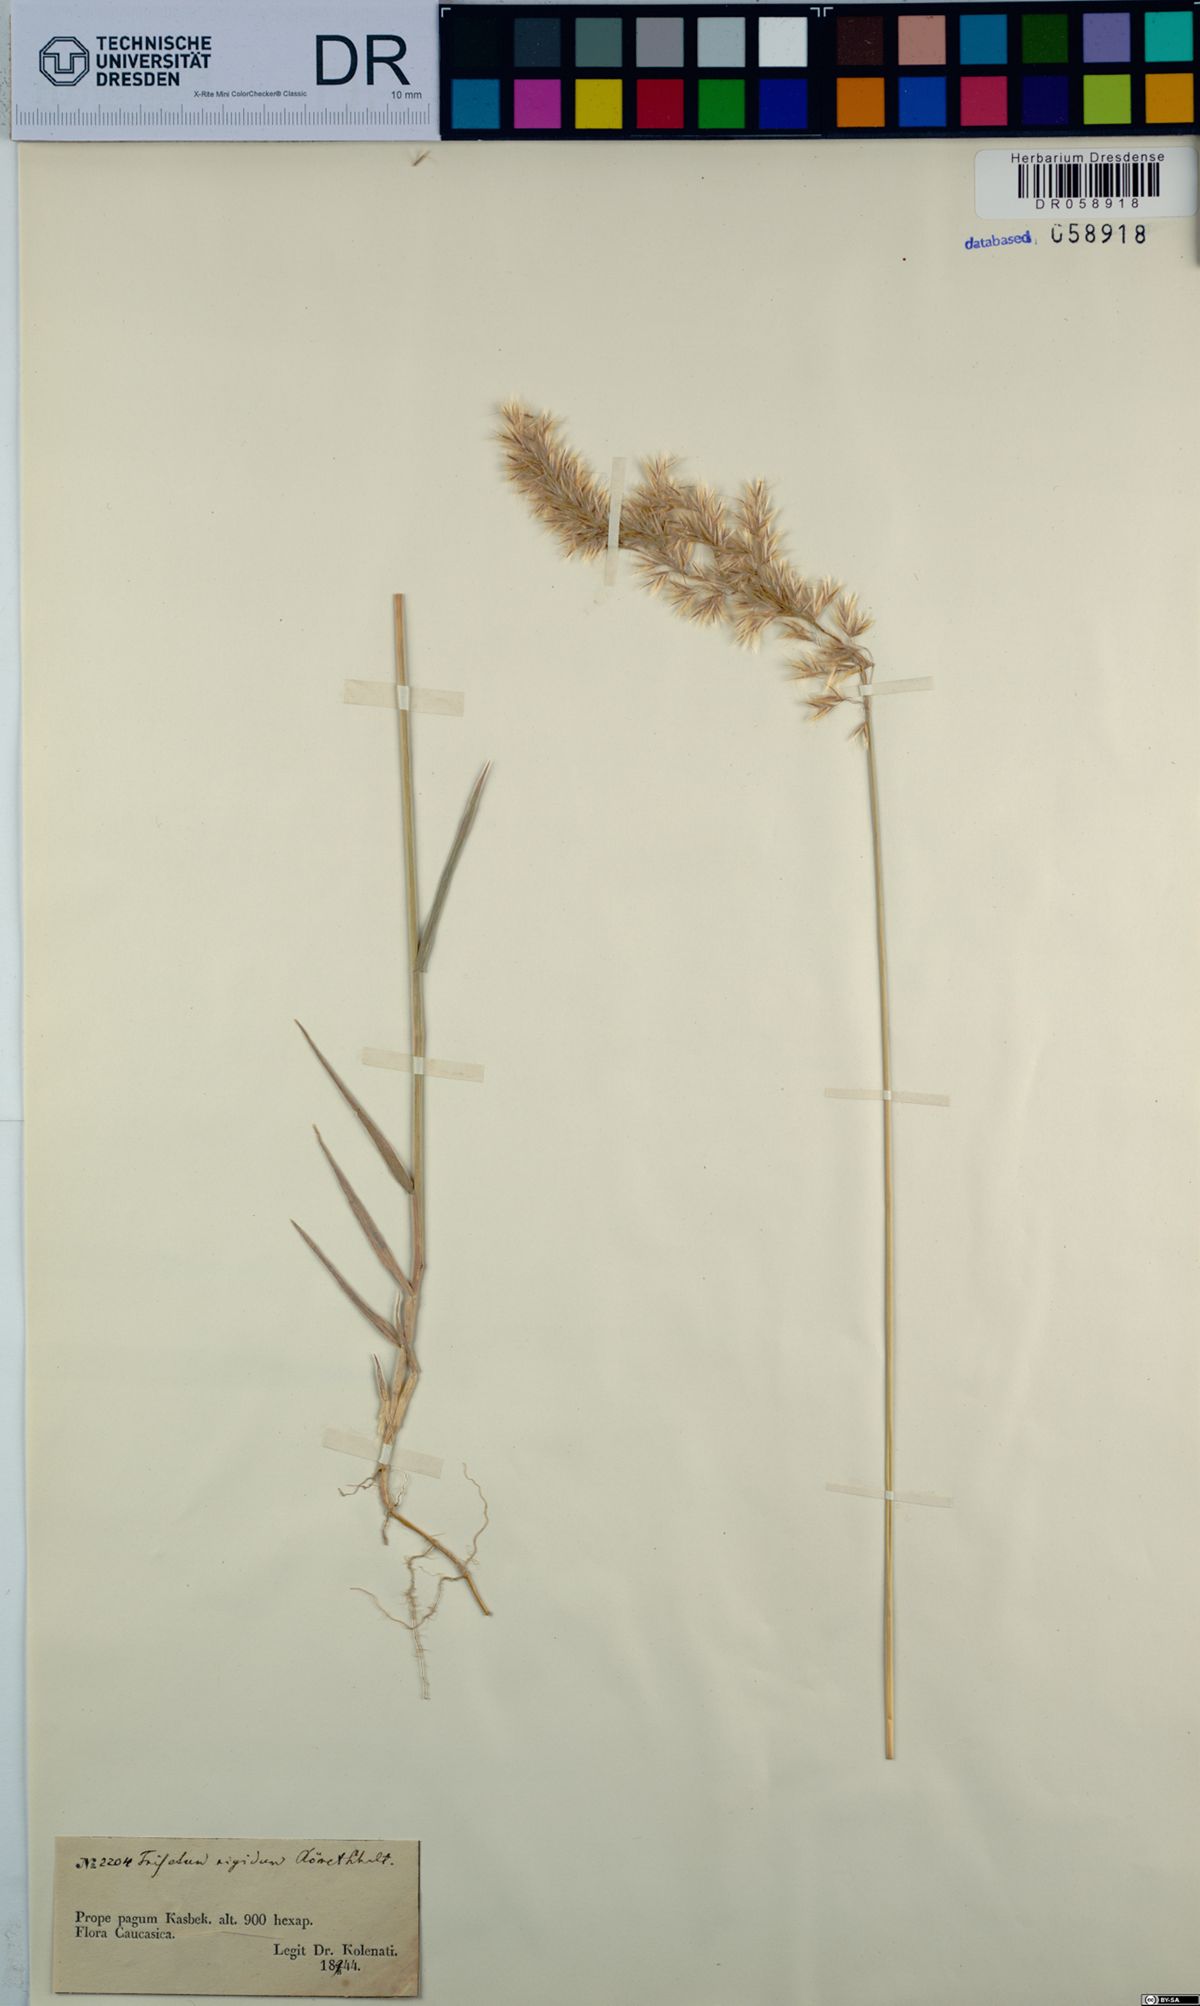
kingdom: Plantae
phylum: Tracheophyta
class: Liliopsida
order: Poales
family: Poaceae
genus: Trisetum
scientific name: Trisetum rigidum
